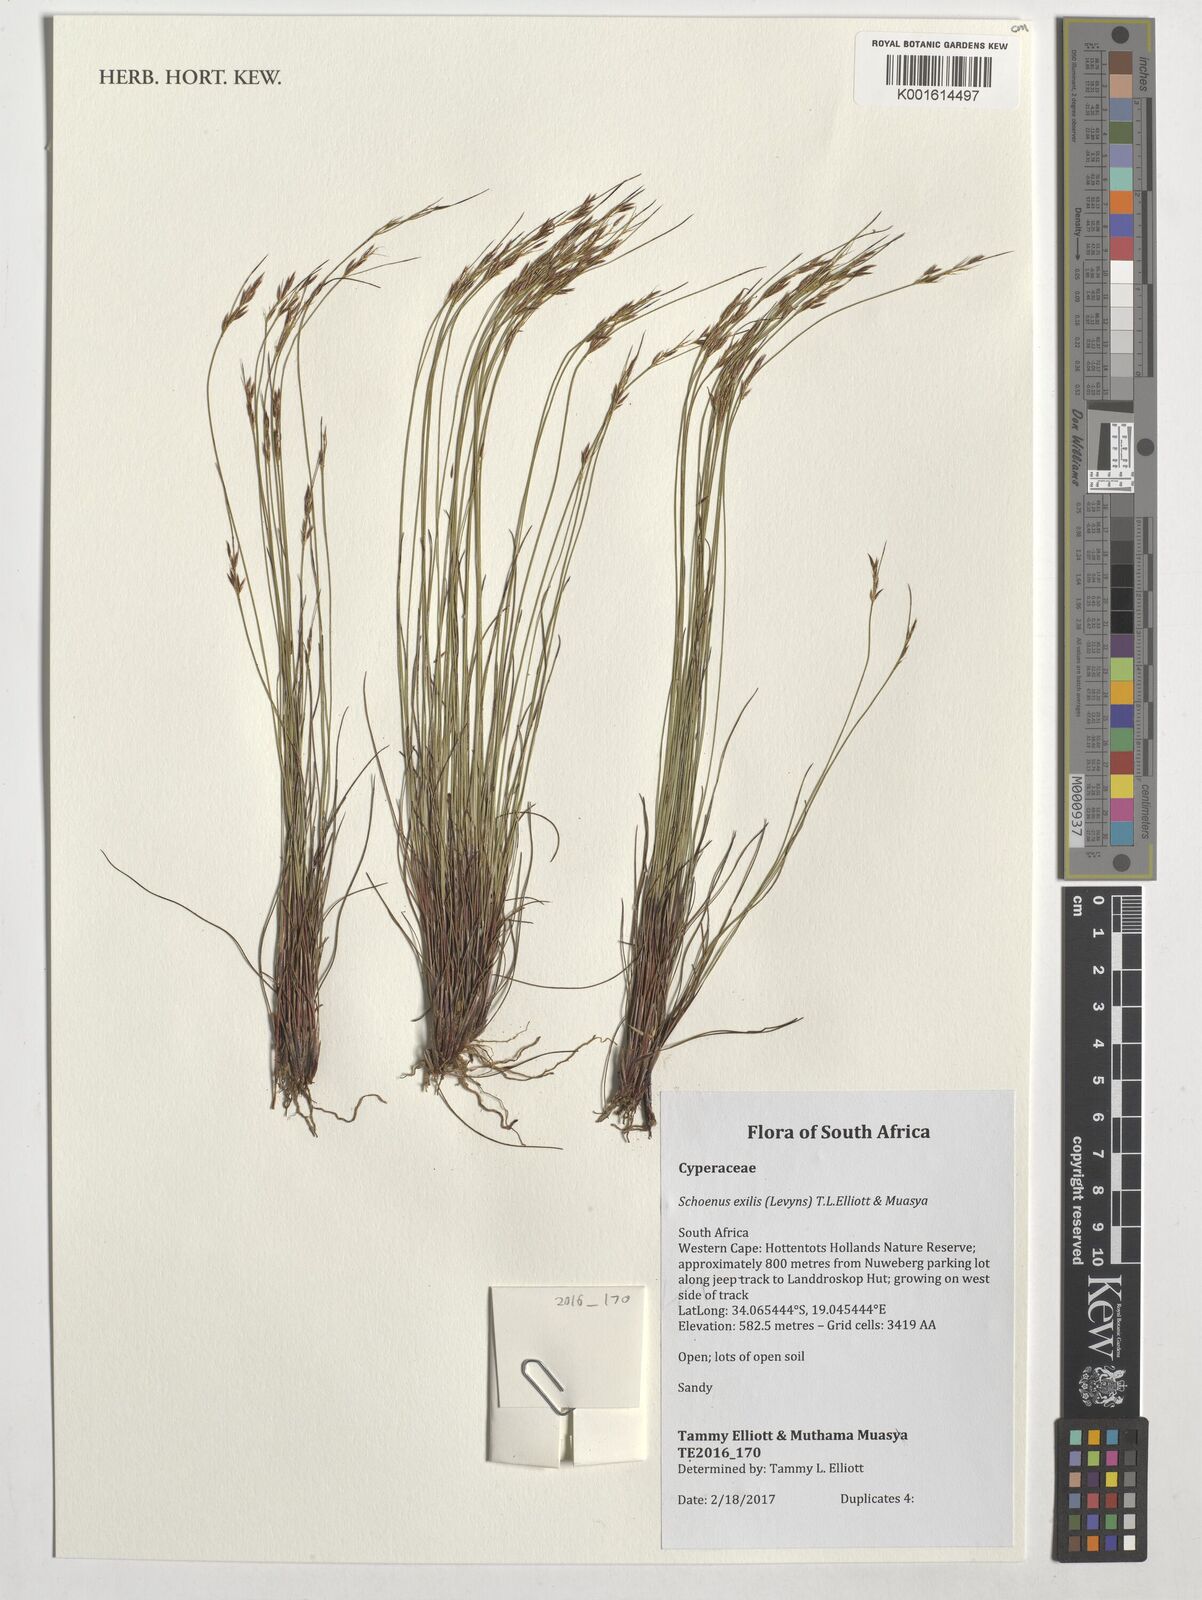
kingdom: Plantae
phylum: Tracheophyta
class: Liliopsida
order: Poales
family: Cyperaceae
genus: Schoenus
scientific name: Schoenus exilis
